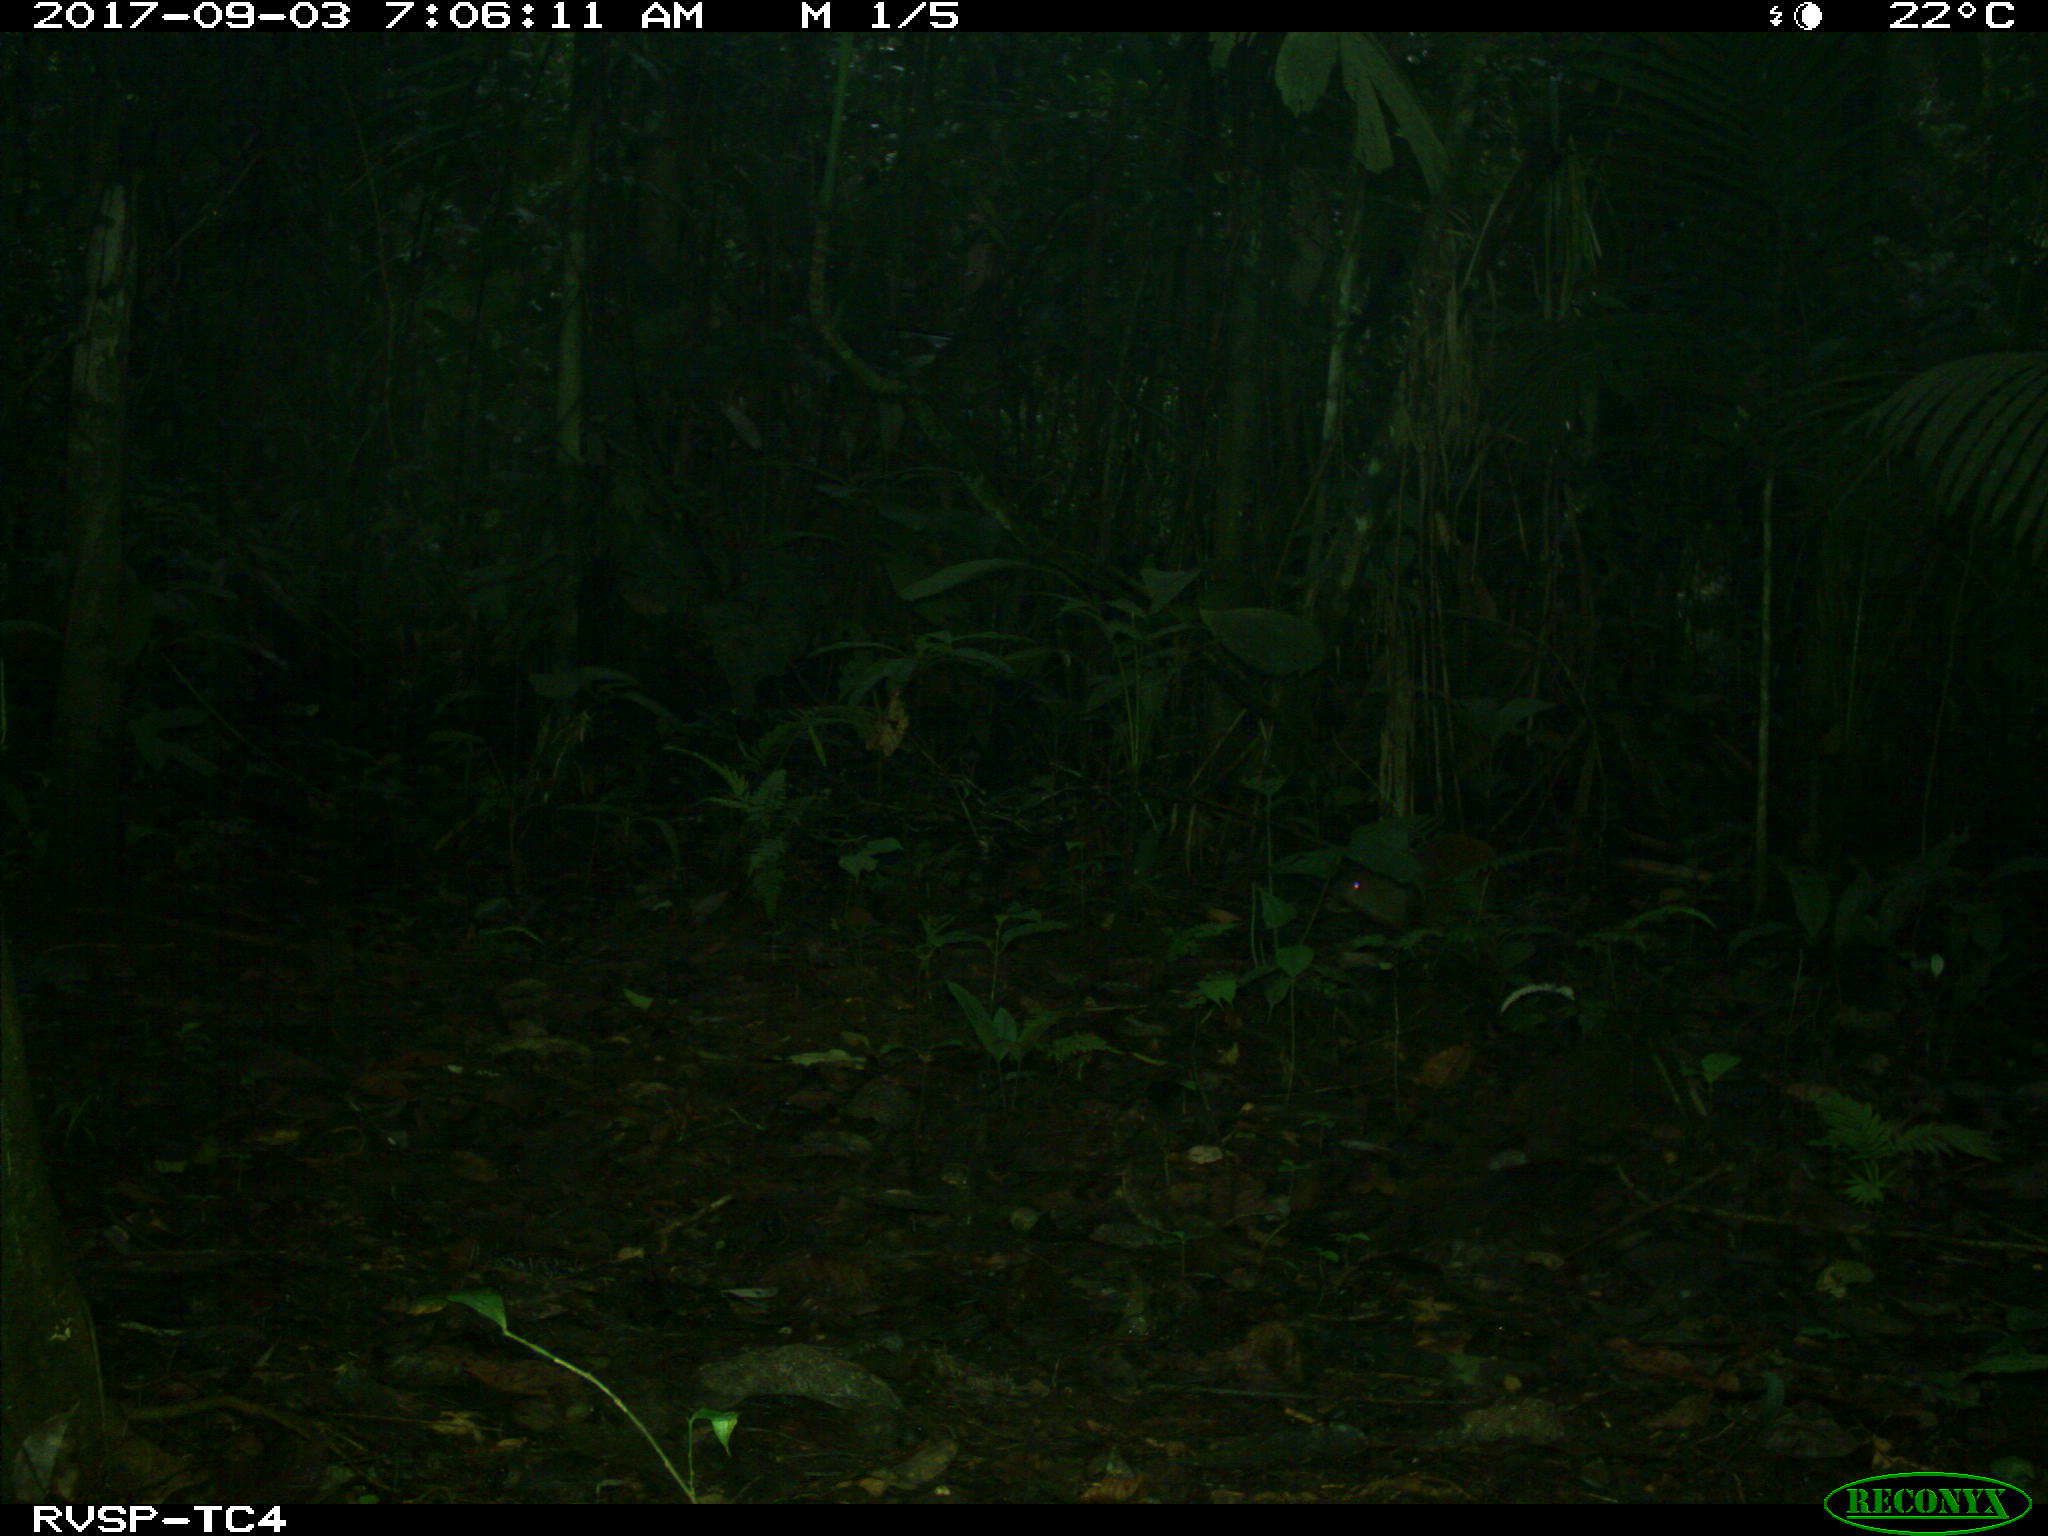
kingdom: Animalia
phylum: Chordata
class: Mammalia
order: Rodentia
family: Dasyproctidae
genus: Dasyprocta
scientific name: Dasyprocta punctata
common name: Central american agouti
